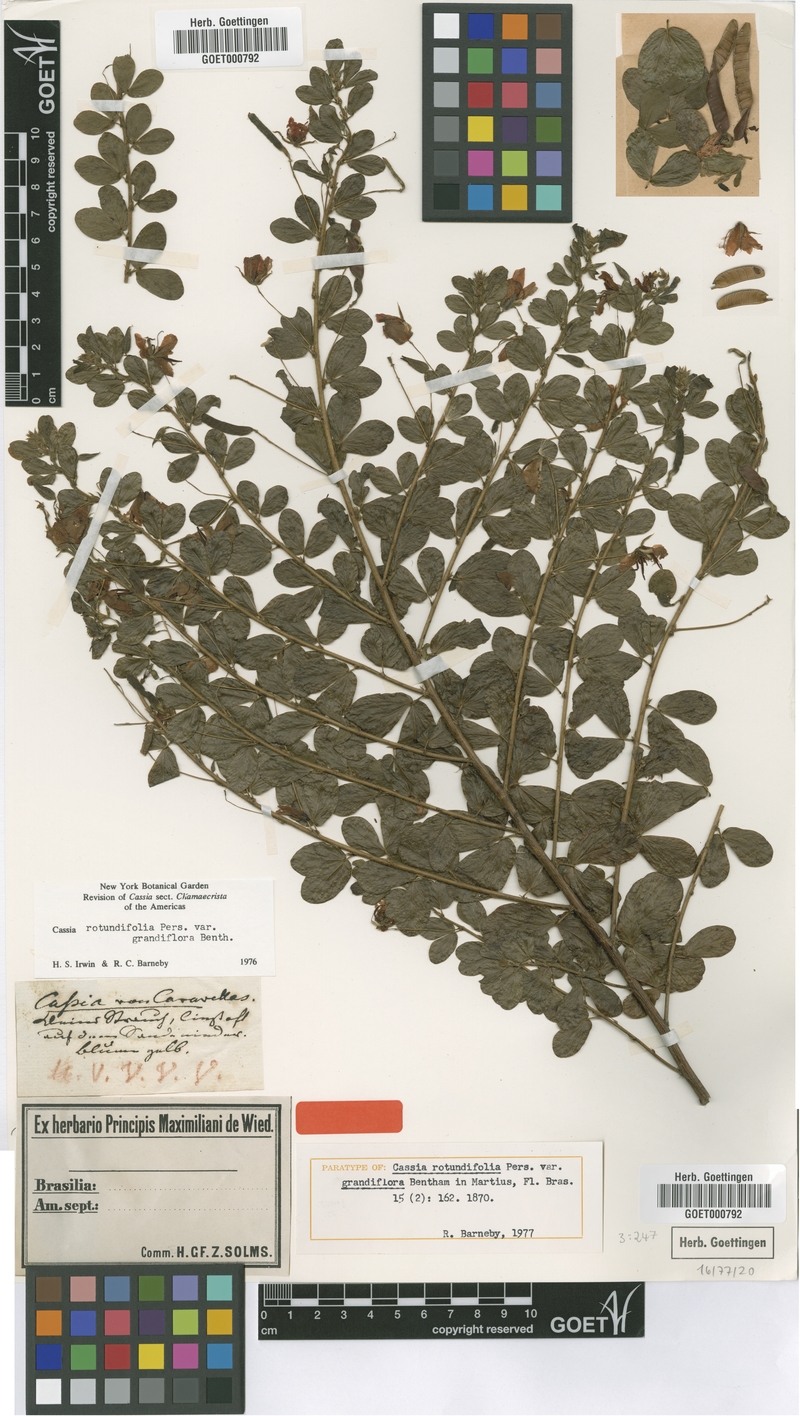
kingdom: Plantae
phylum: Tracheophyta
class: Magnoliopsida
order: Fabales
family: Fabaceae
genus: Chamaecrista
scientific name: Chamaecrista rotundifolia
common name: Round-leaf cassia
